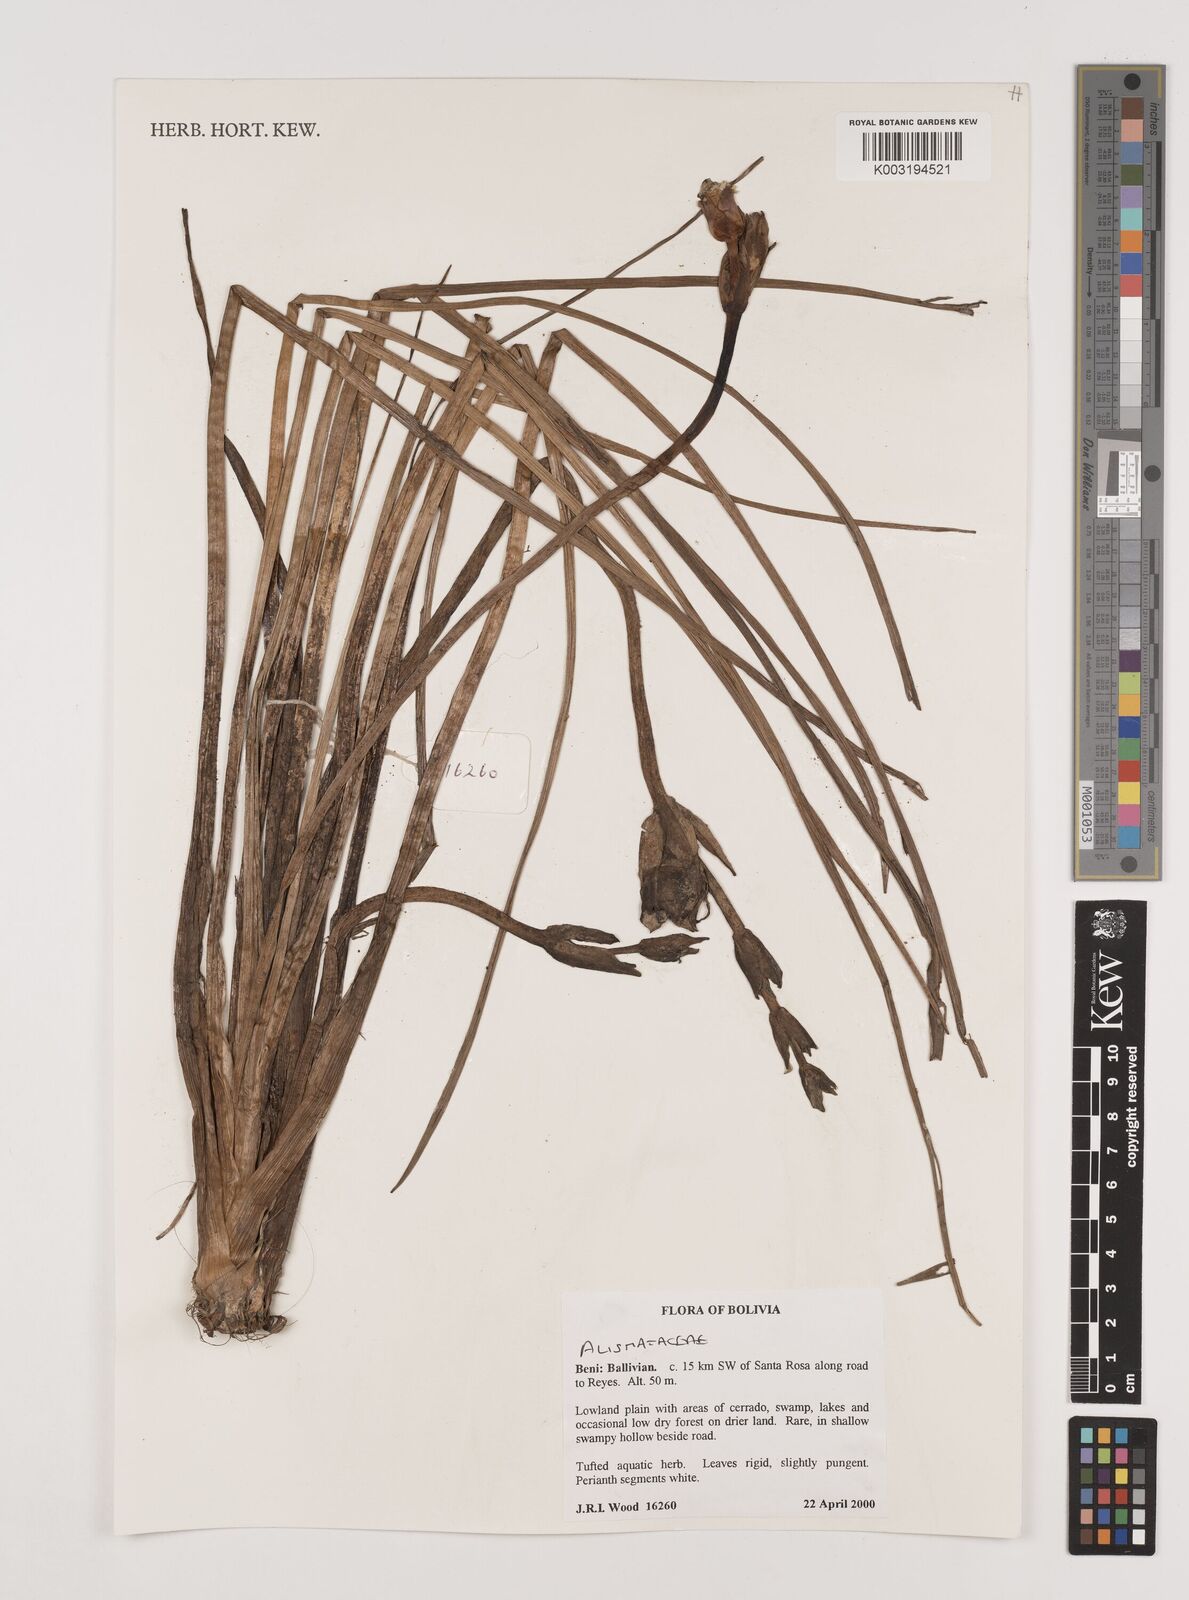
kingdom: Plantae
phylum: Tracheophyta
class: Liliopsida
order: Alismatales
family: Alismataceae
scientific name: Alismataceae
